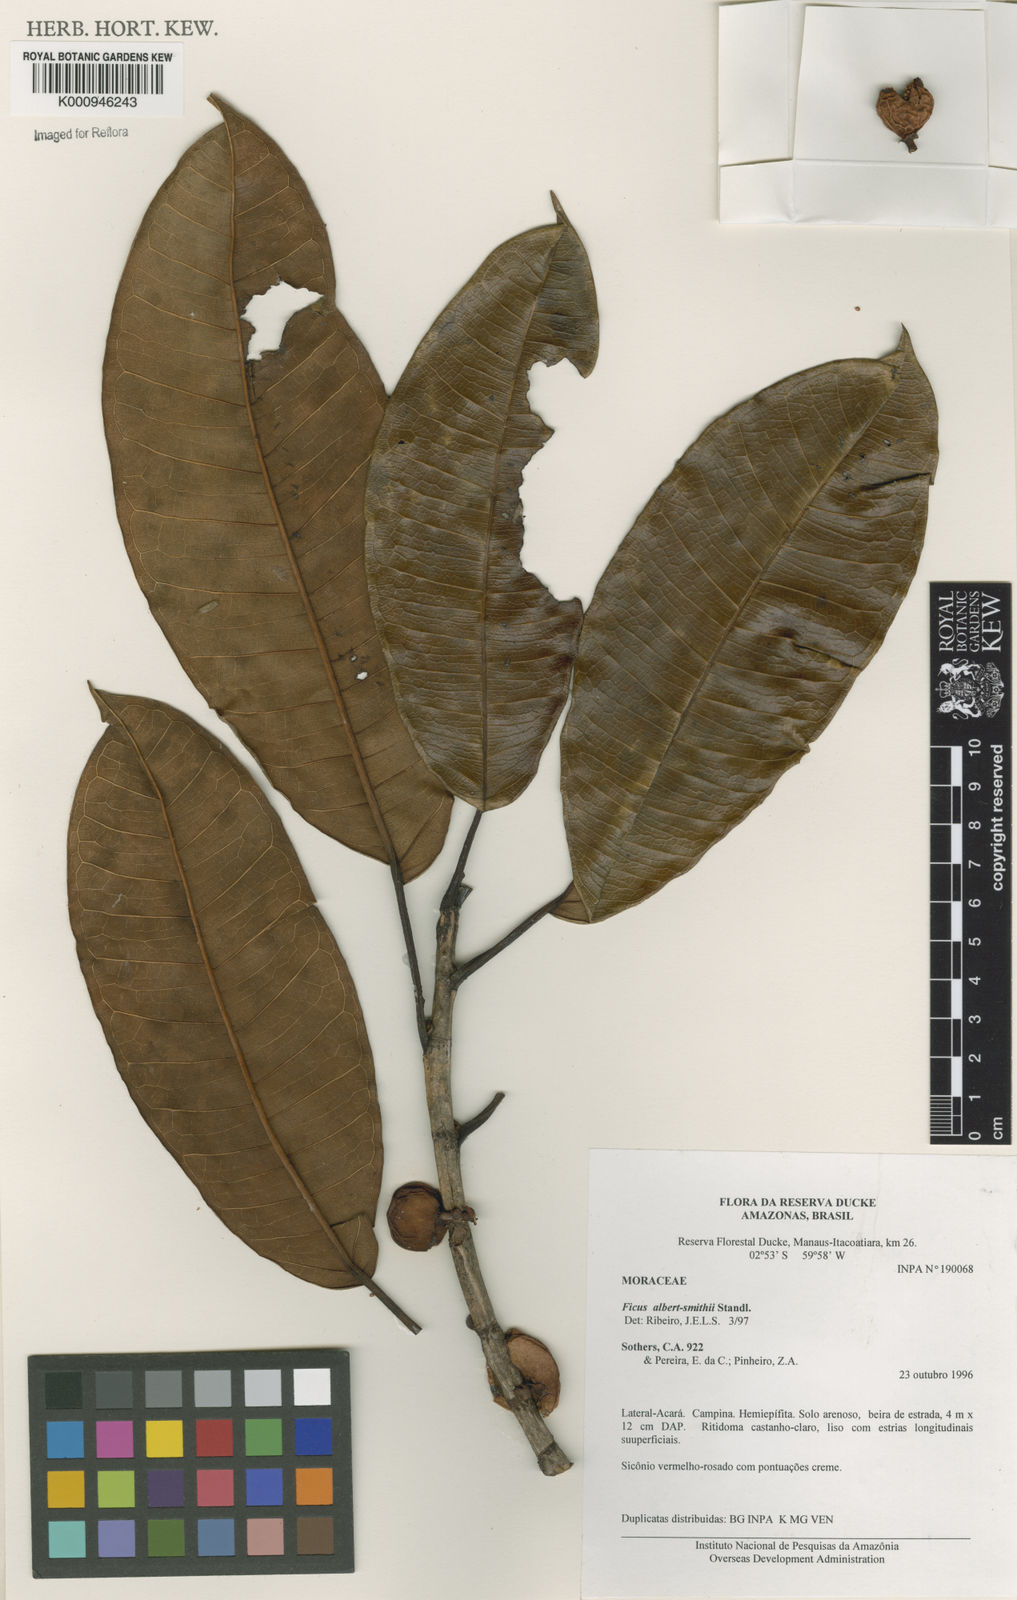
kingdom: Plantae
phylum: Tracheophyta
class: Magnoliopsida
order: Rosales
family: Moraceae
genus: Ficus
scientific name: Ficus albert-smithii
